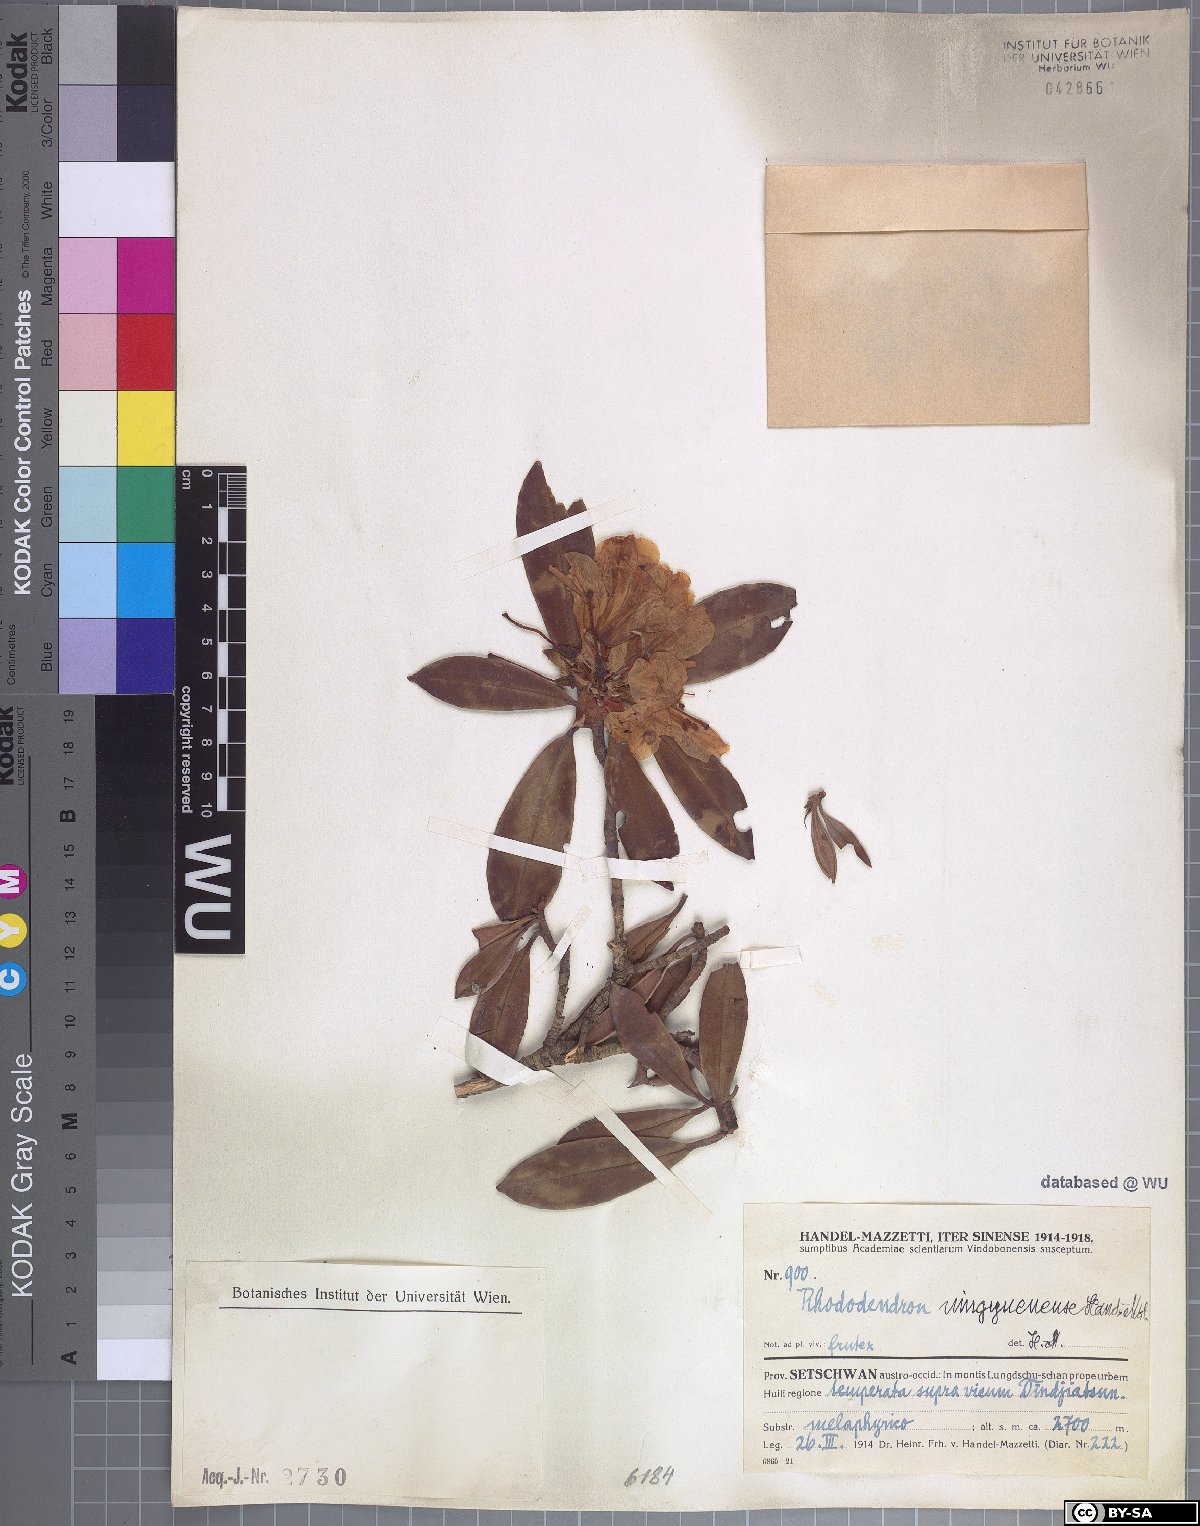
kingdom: Plantae
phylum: Tracheophyta
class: Magnoliopsida
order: Ericales
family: Ericaceae
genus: Rhododendron
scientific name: Rhododendron irroratum
